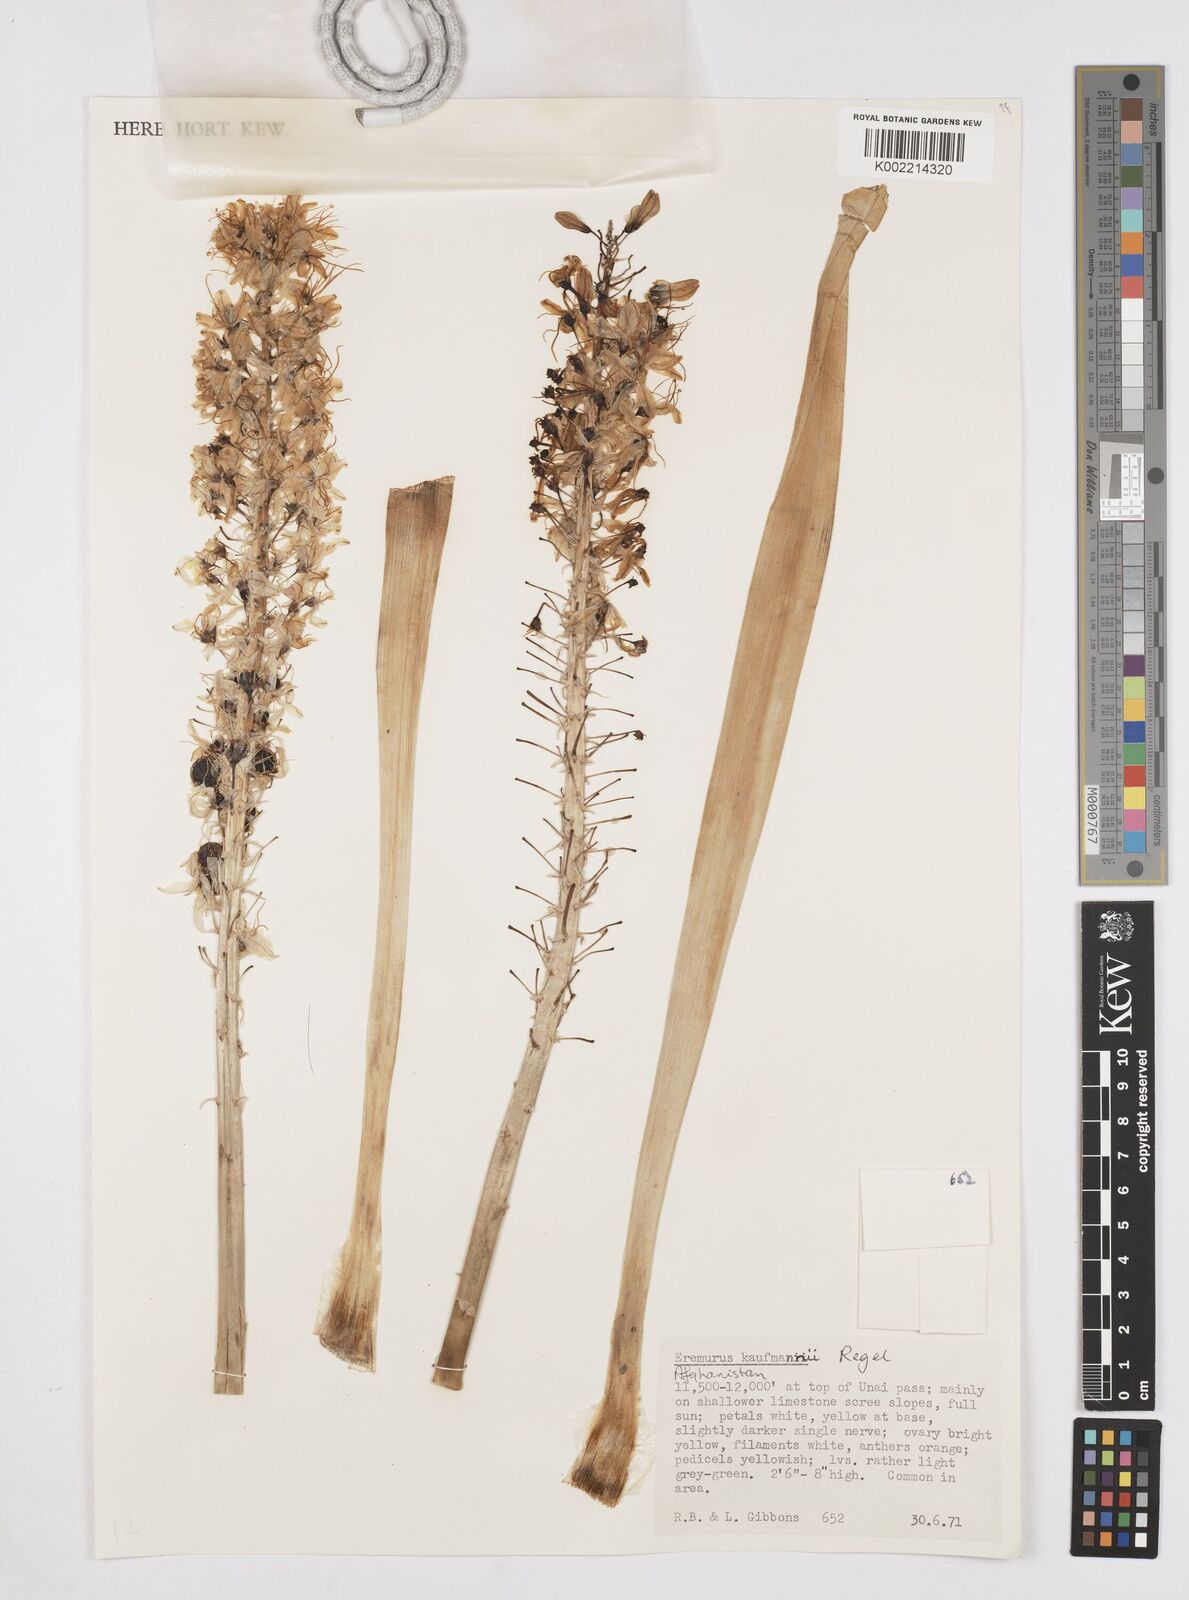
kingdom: Plantae
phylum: Tracheophyta
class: Liliopsida
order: Asparagales
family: Asphodelaceae
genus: Eremurus
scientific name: Eremurus kaufmannii
